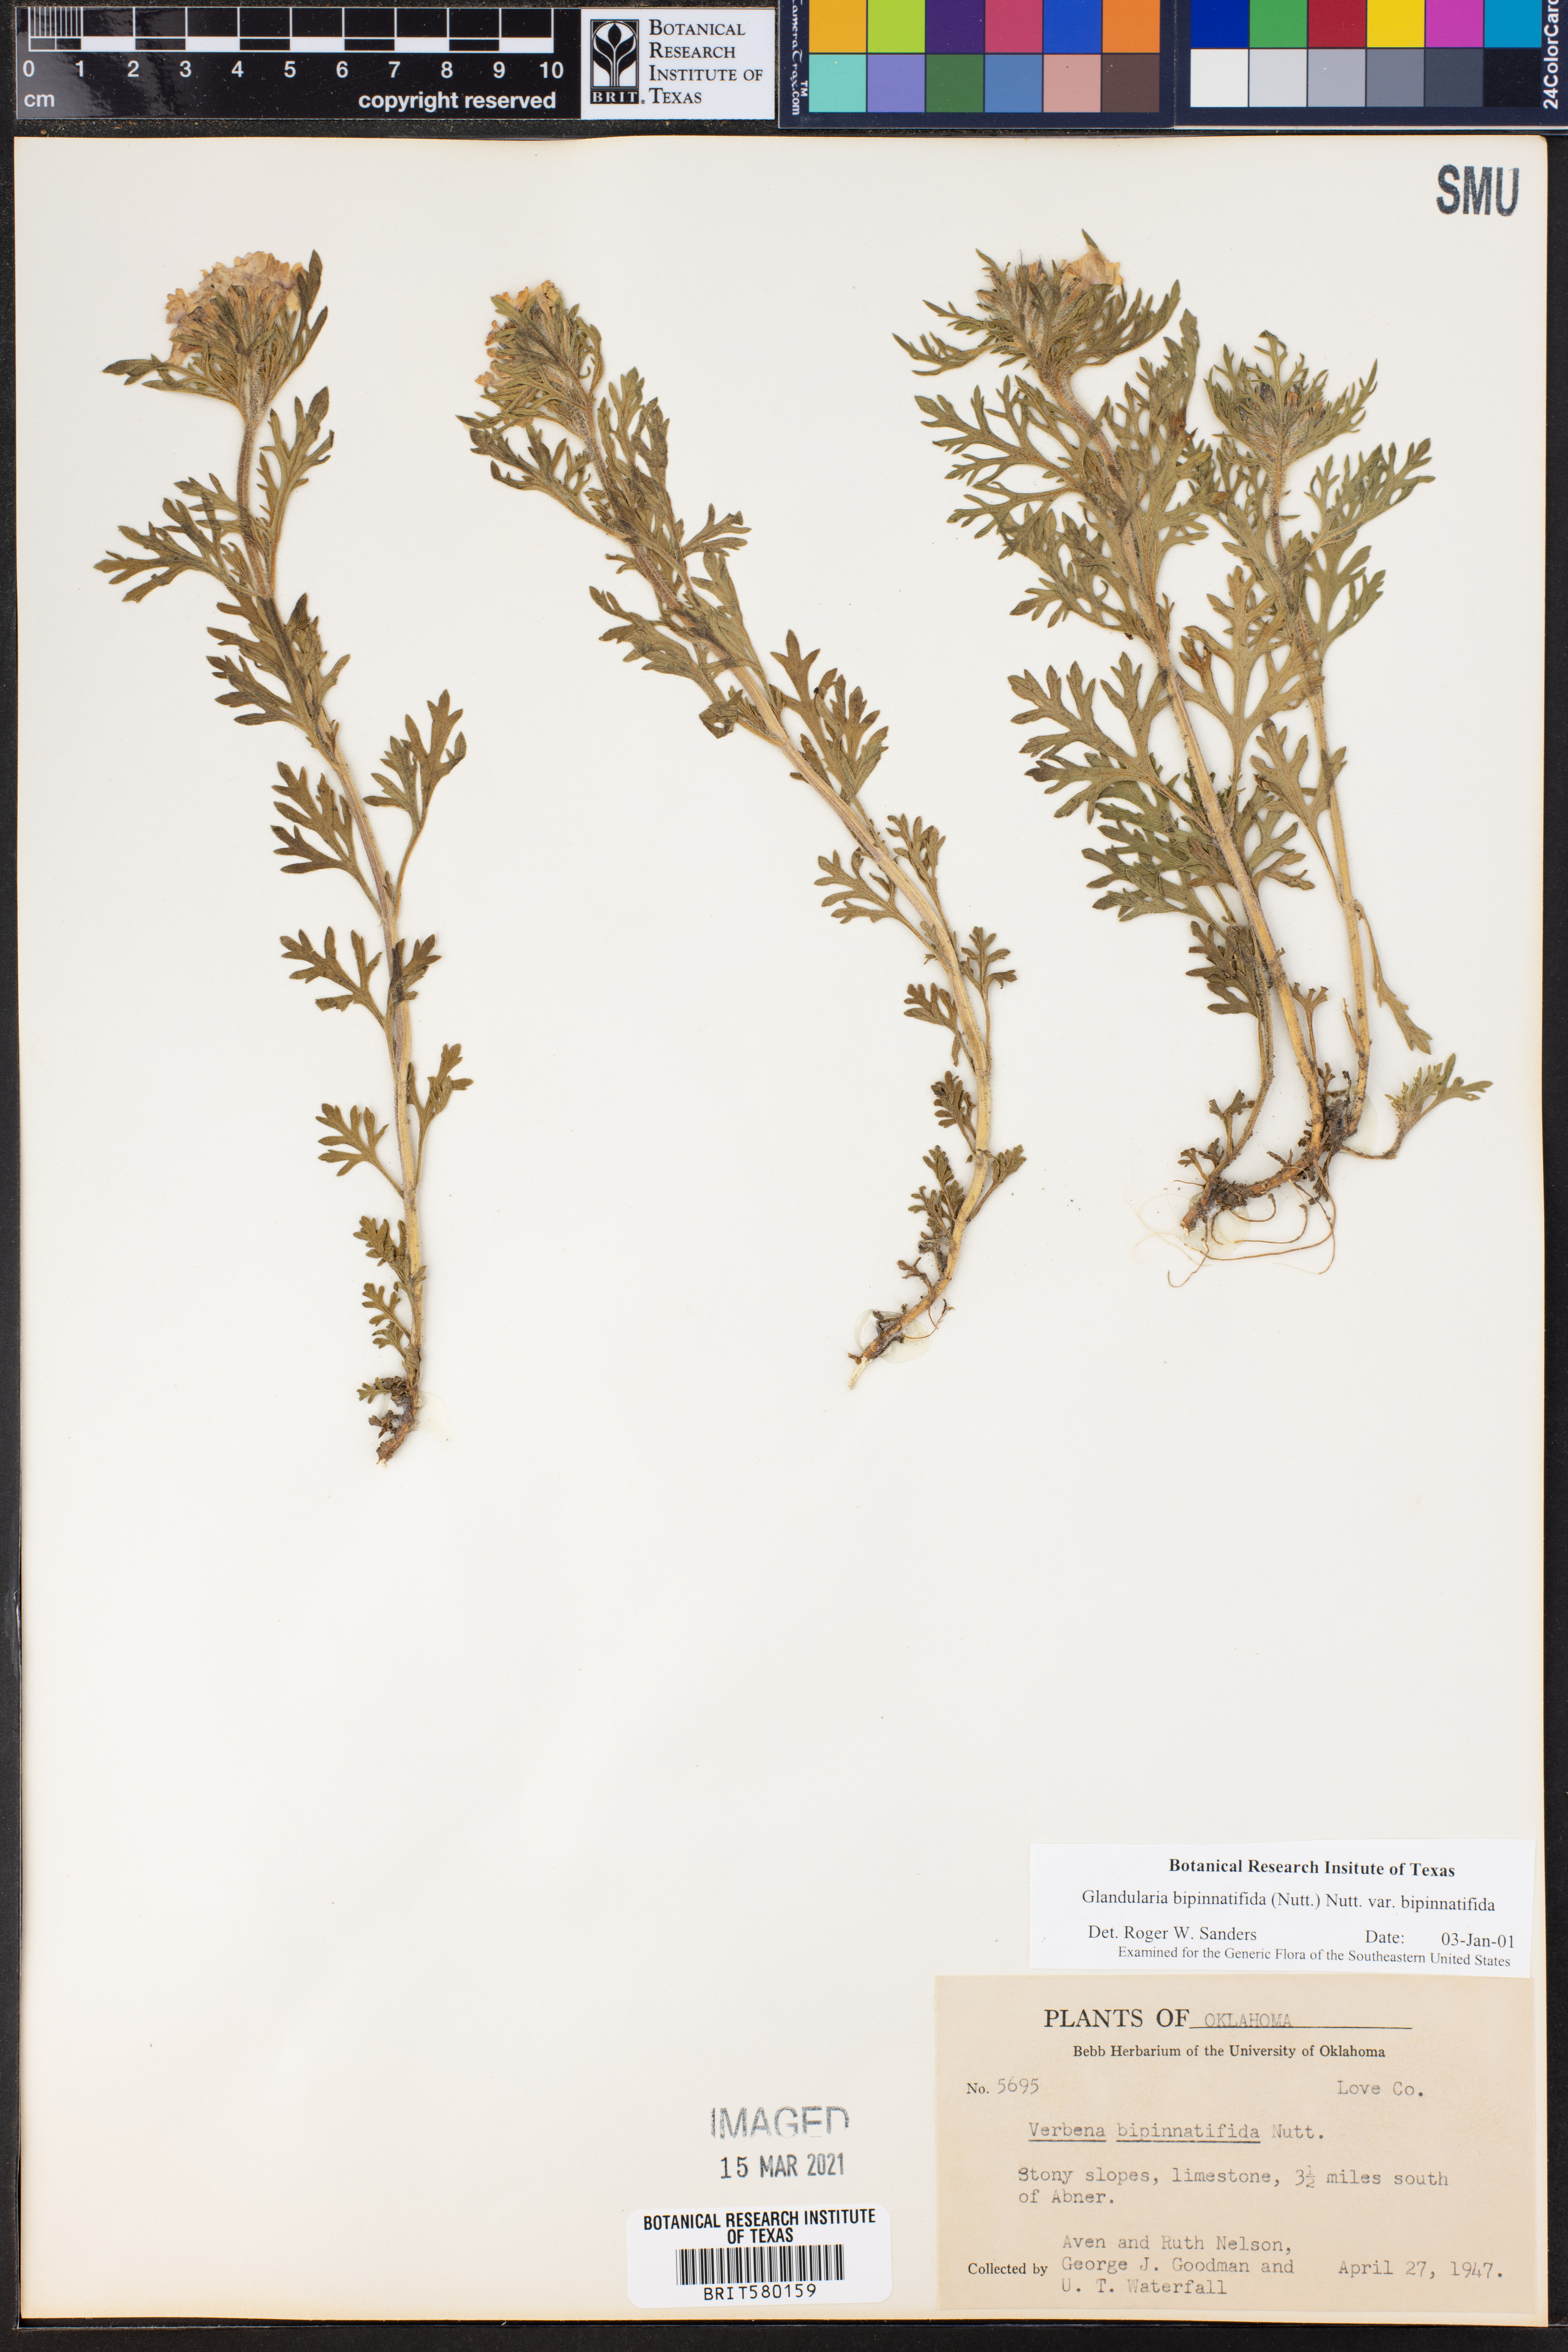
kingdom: Plantae
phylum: Tracheophyta
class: Magnoliopsida
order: Lamiales
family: Verbenaceae
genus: Verbena
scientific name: Verbena bipinnatifida
